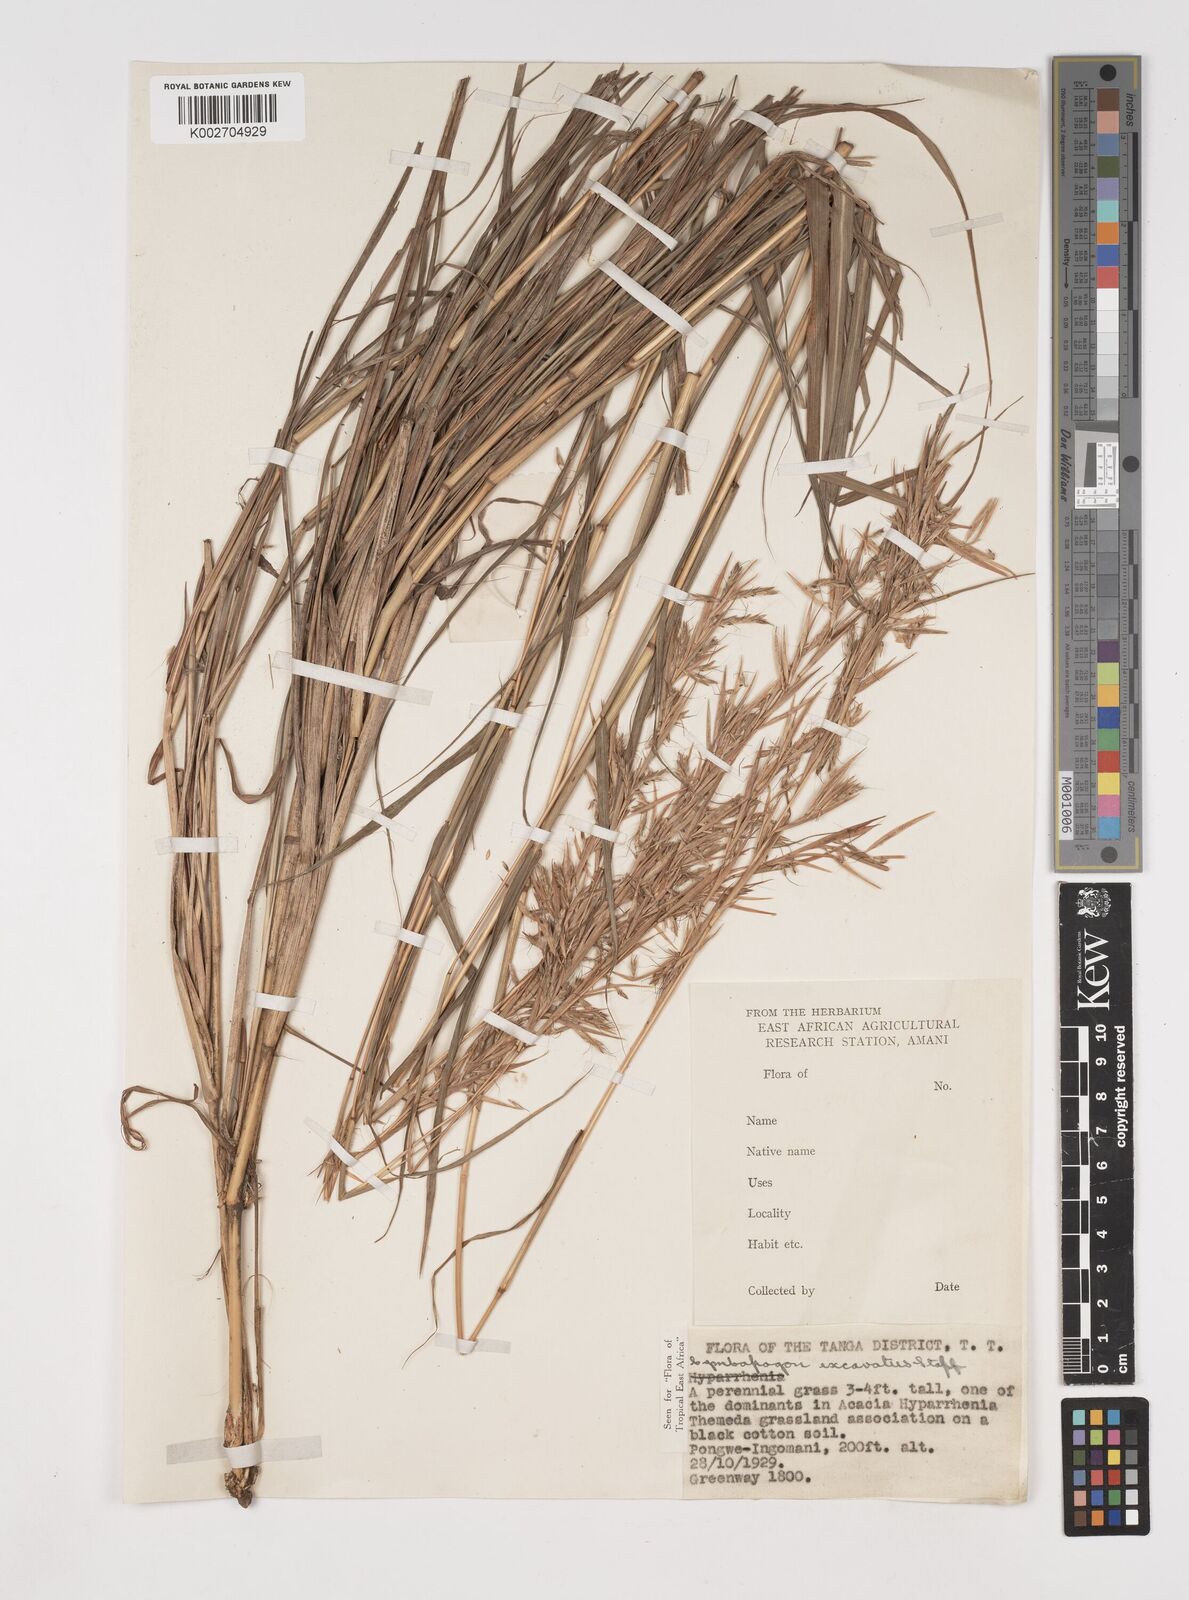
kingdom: Plantae
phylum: Tracheophyta
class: Liliopsida
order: Poales
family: Poaceae
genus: Cymbopogon
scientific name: Cymbopogon caesius
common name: Kachi grass
